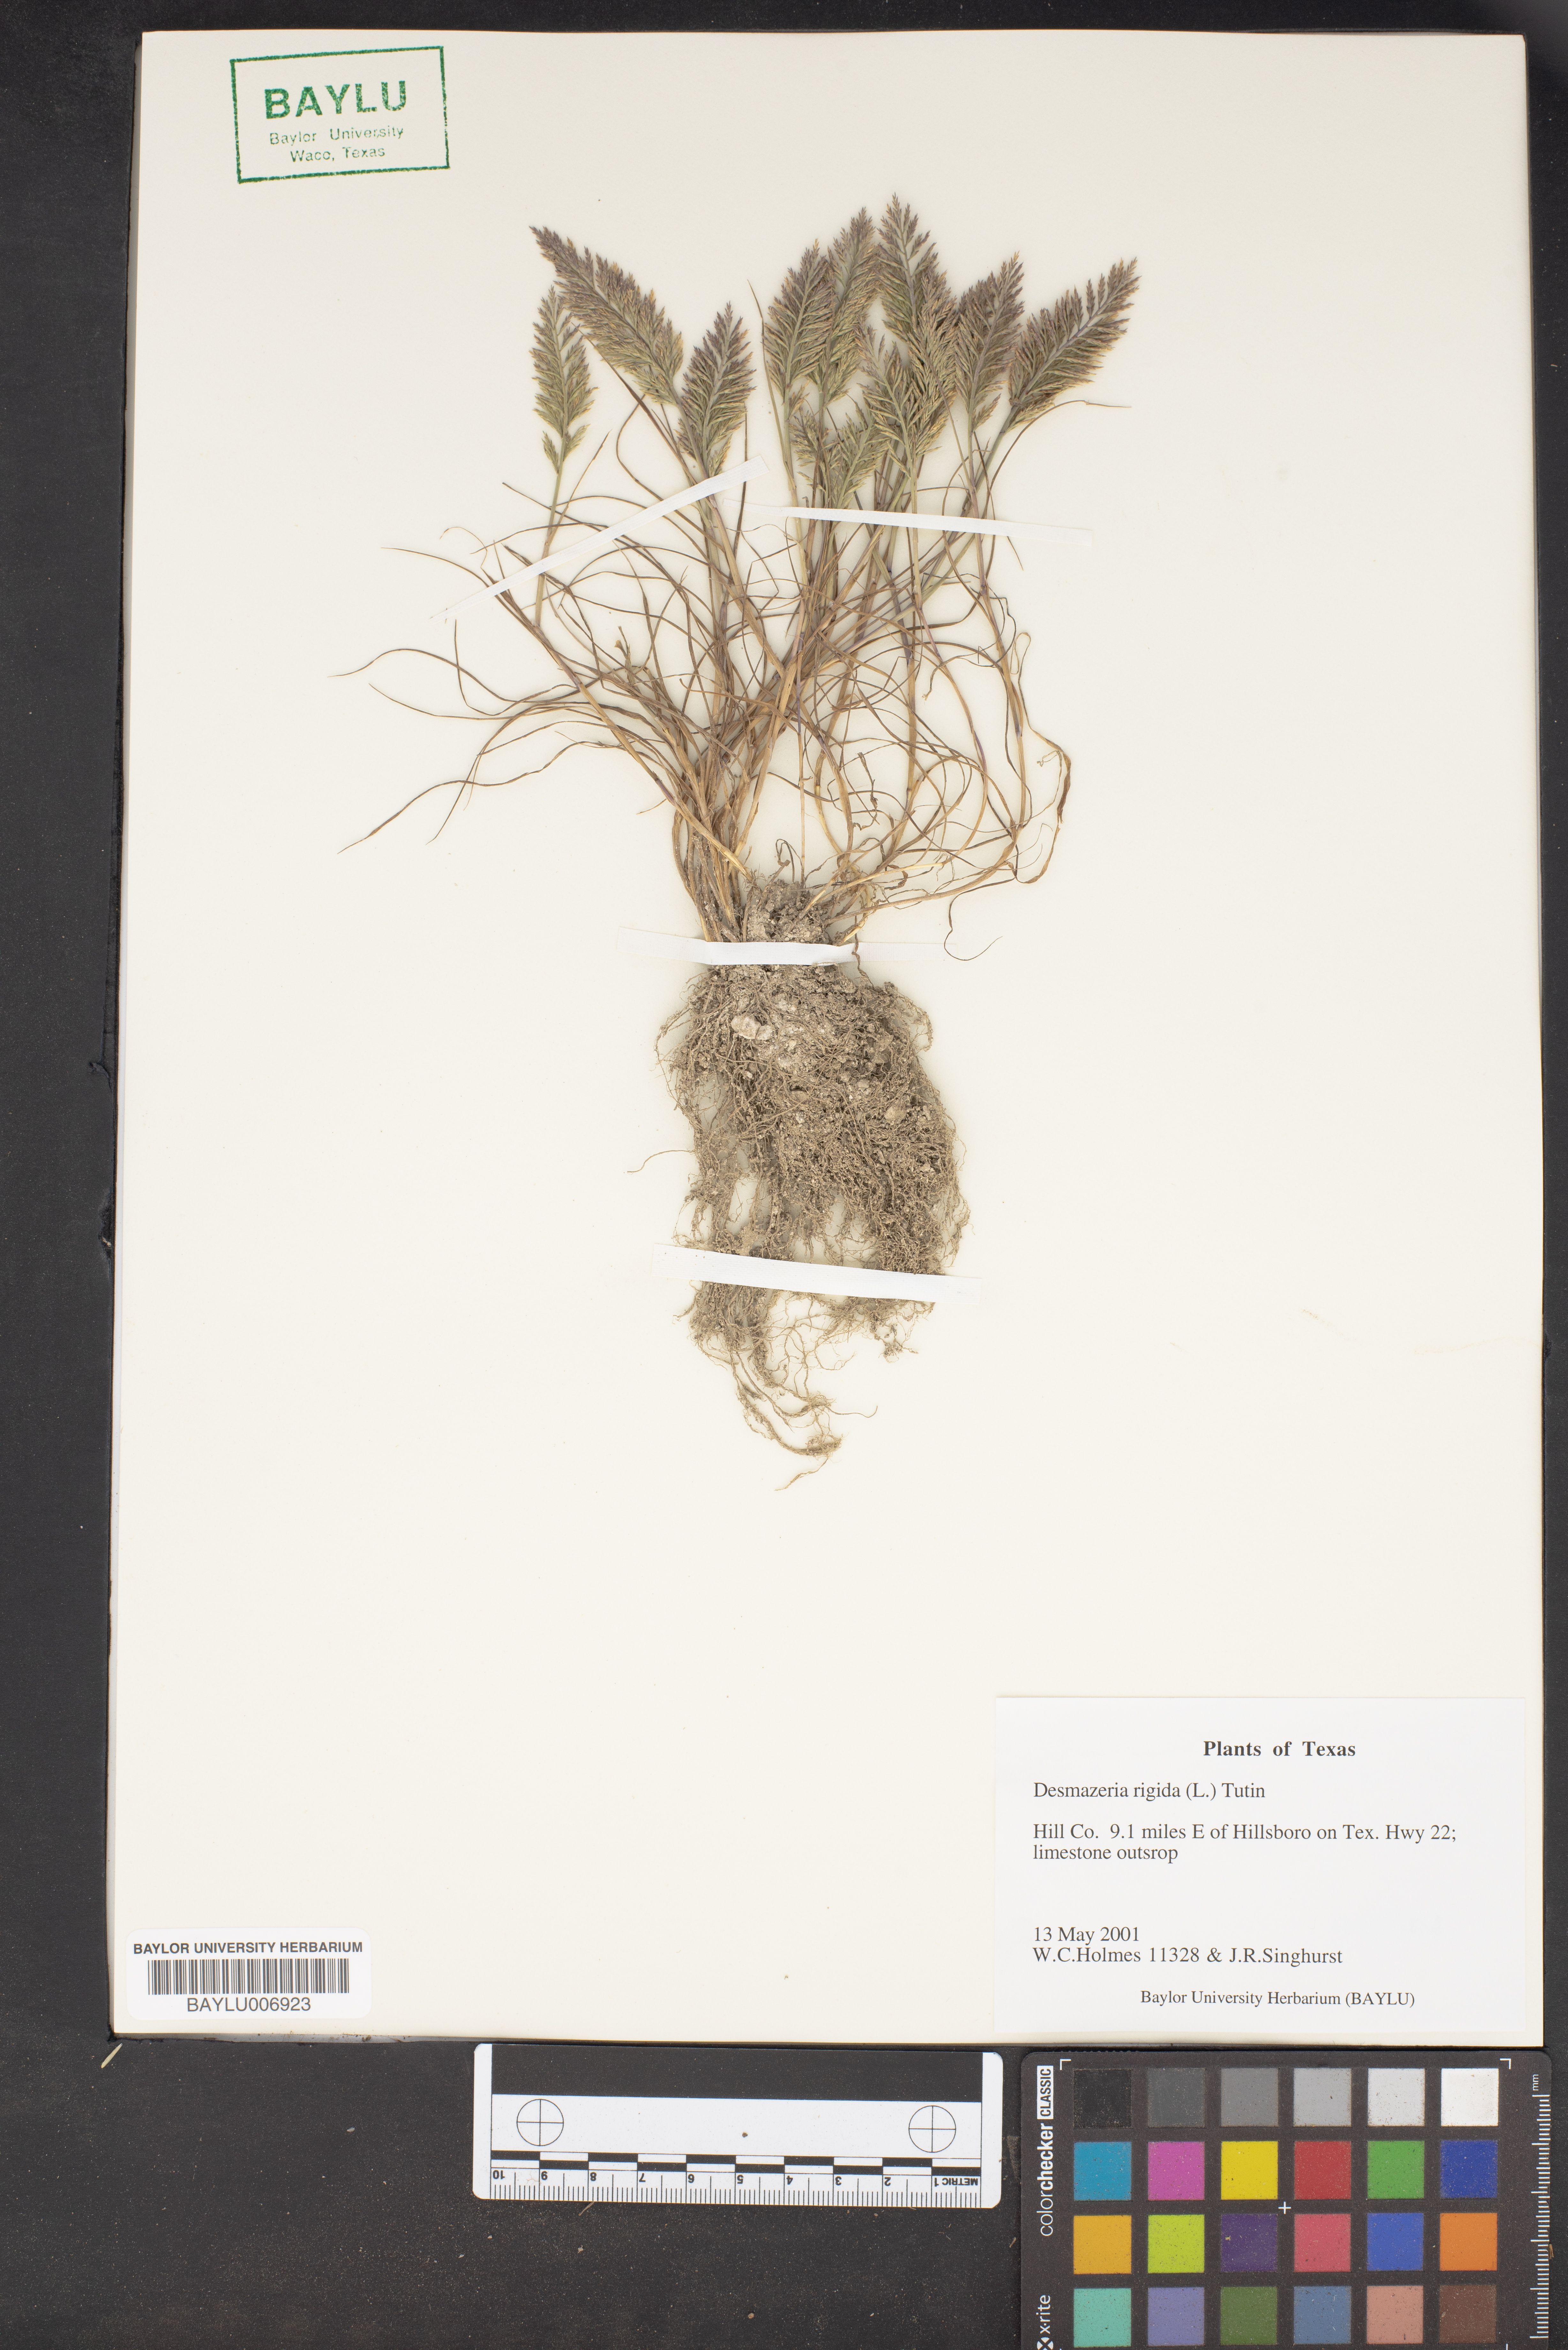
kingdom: Plantae
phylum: Tracheophyta
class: Liliopsida
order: Poales
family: Poaceae
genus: Catapodium
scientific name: Catapodium rigidum
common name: Fern-grass
